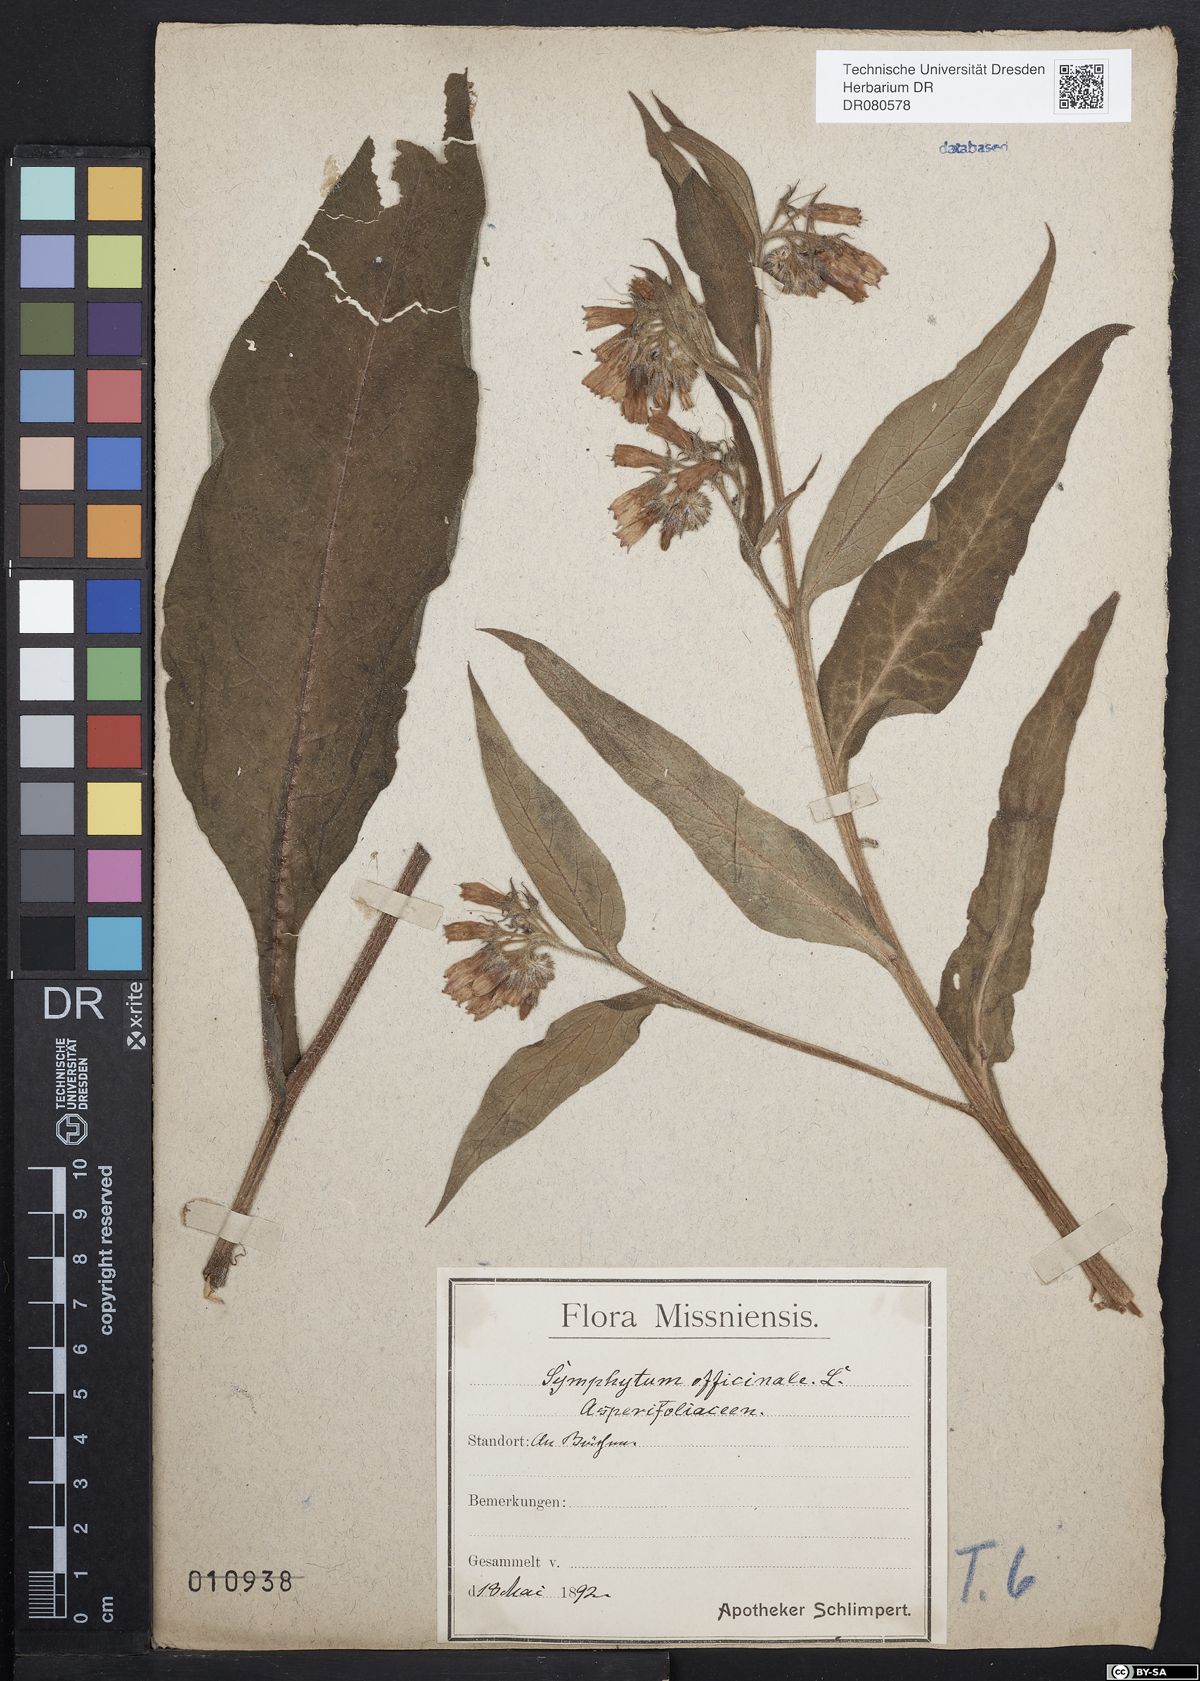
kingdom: Plantae
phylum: Tracheophyta
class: Magnoliopsida
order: Boraginales
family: Boraginaceae
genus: Symphytum
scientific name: Symphytum officinale
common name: Common comfrey
